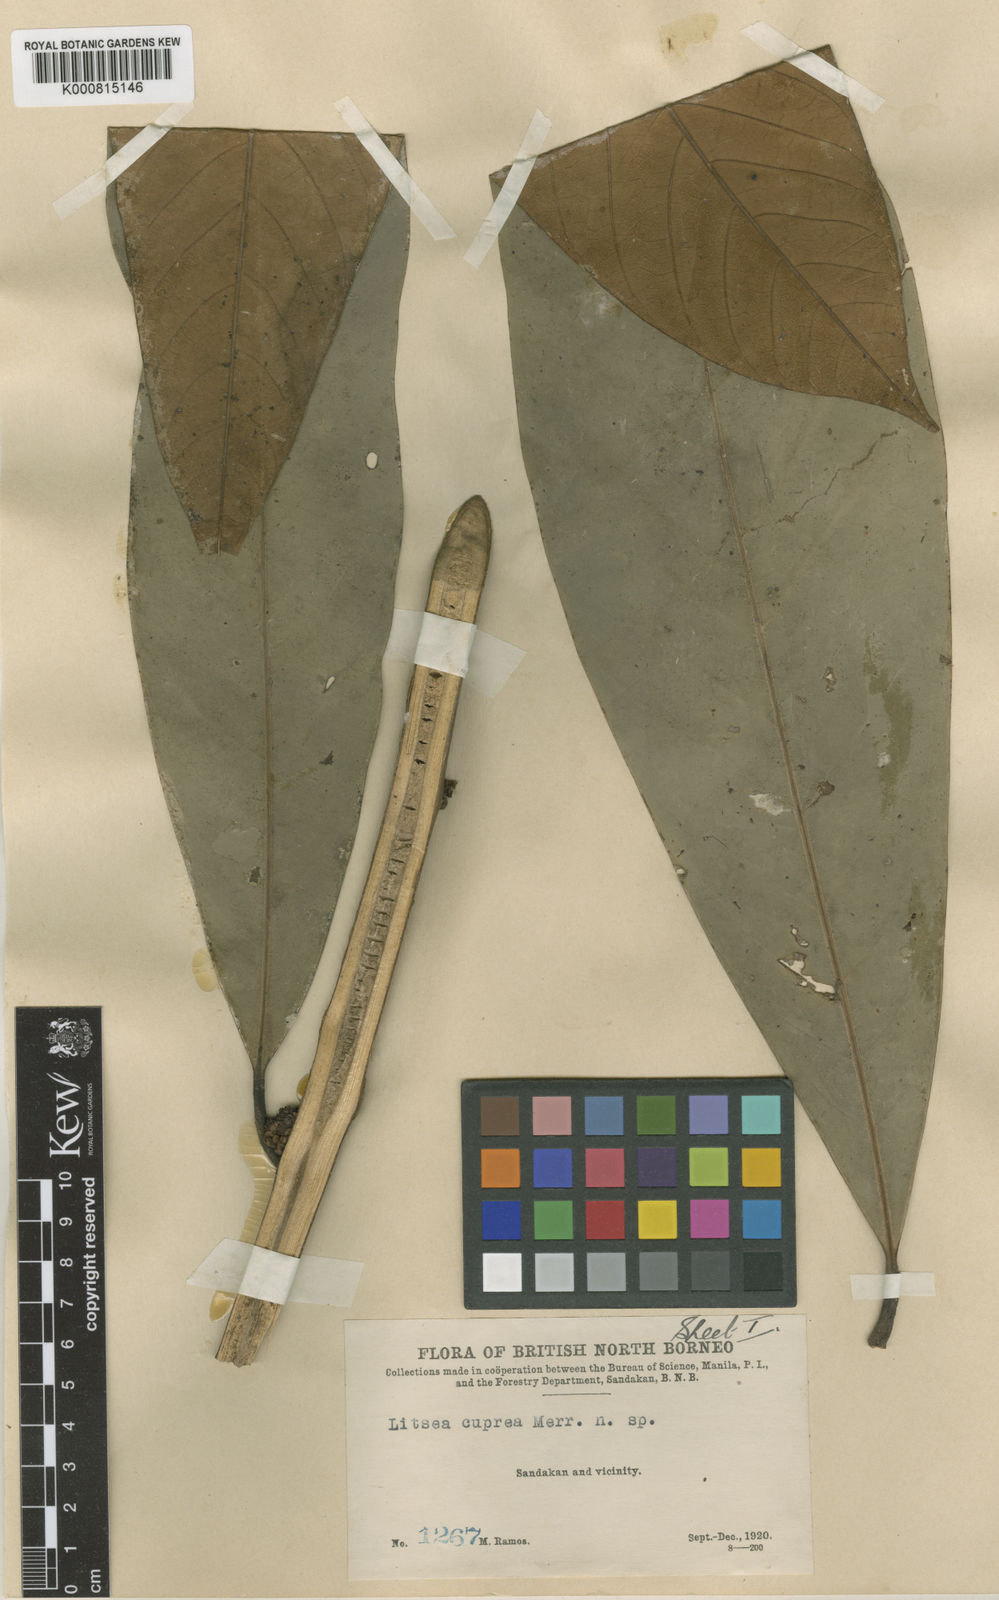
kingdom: Plantae
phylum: Tracheophyta
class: Magnoliopsida
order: Laurales
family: Lauraceae
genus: Litsea
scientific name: Litsea cuprea
